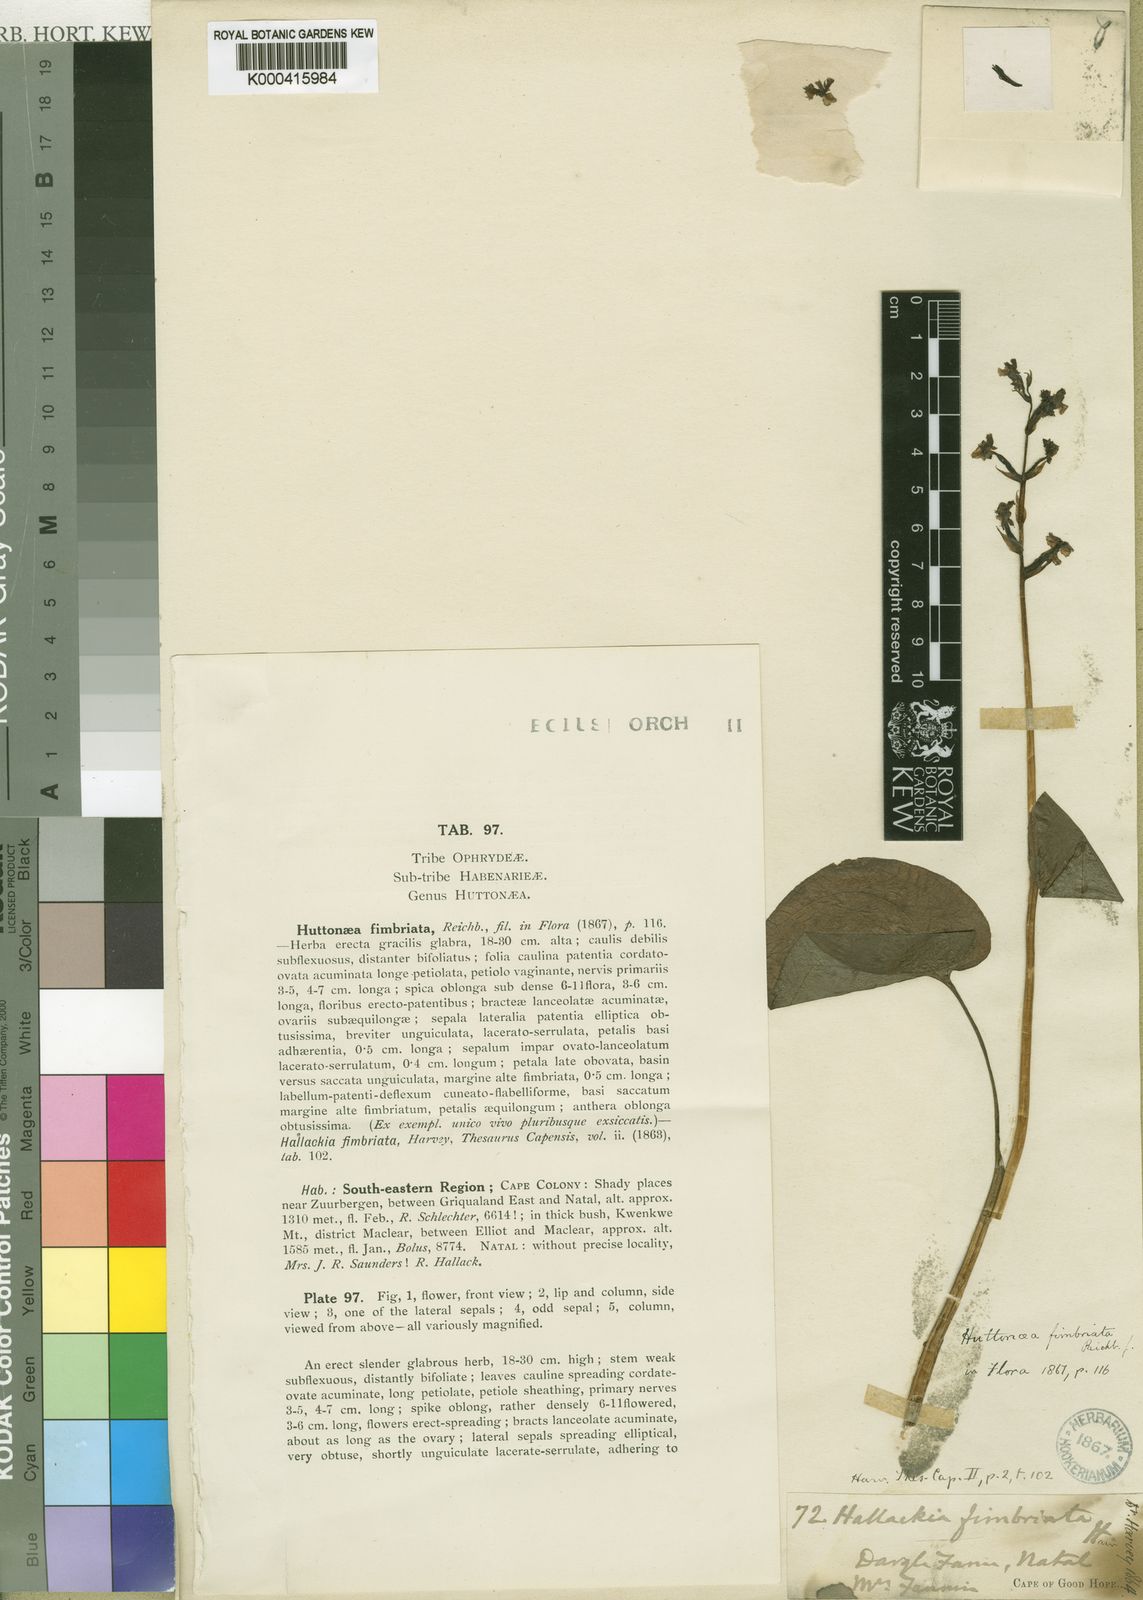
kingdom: Plantae
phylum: Tracheophyta
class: Liliopsida
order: Asparagales
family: Orchidaceae
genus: Huttonaea
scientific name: Huttonaea fimbriata
